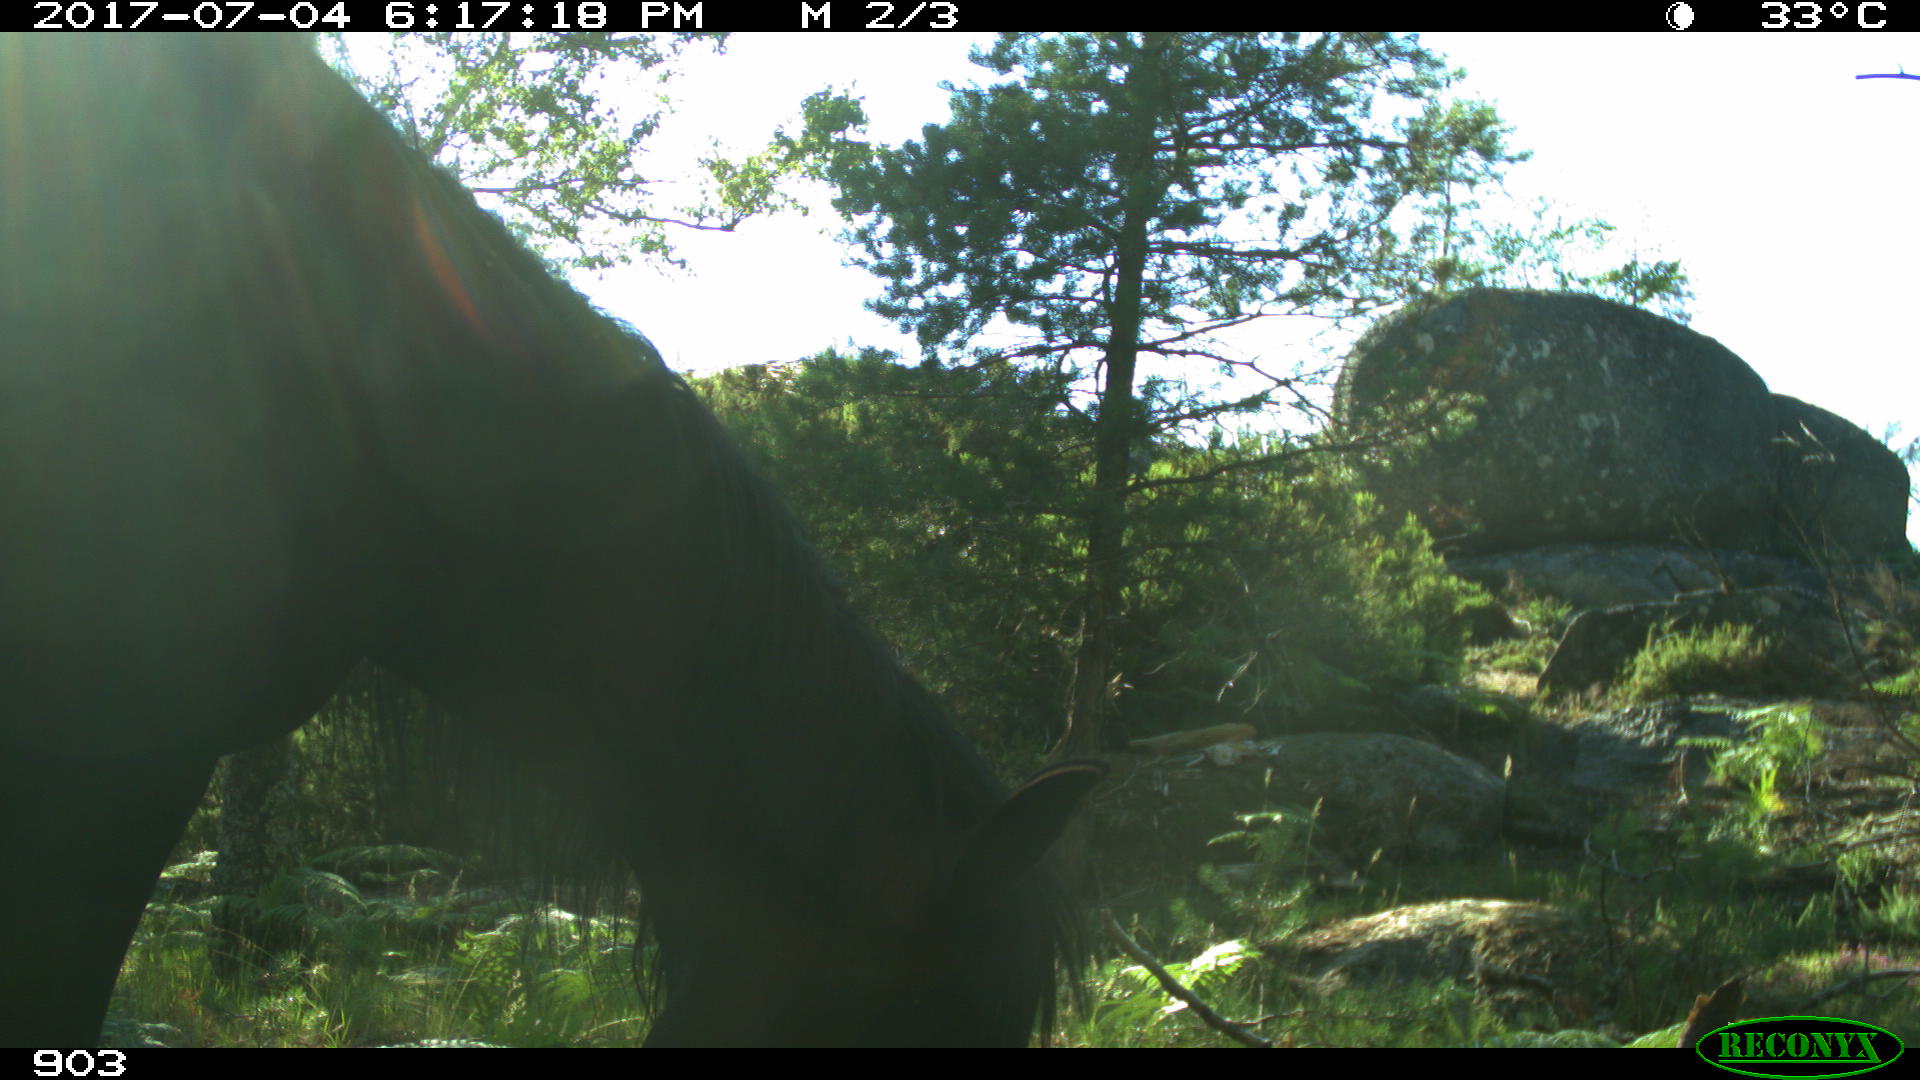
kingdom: Animalia
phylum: Chordata
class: Mammalia
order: Perissodactyla
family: Equidae
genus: Equus
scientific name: Equus caballus
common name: Horse
